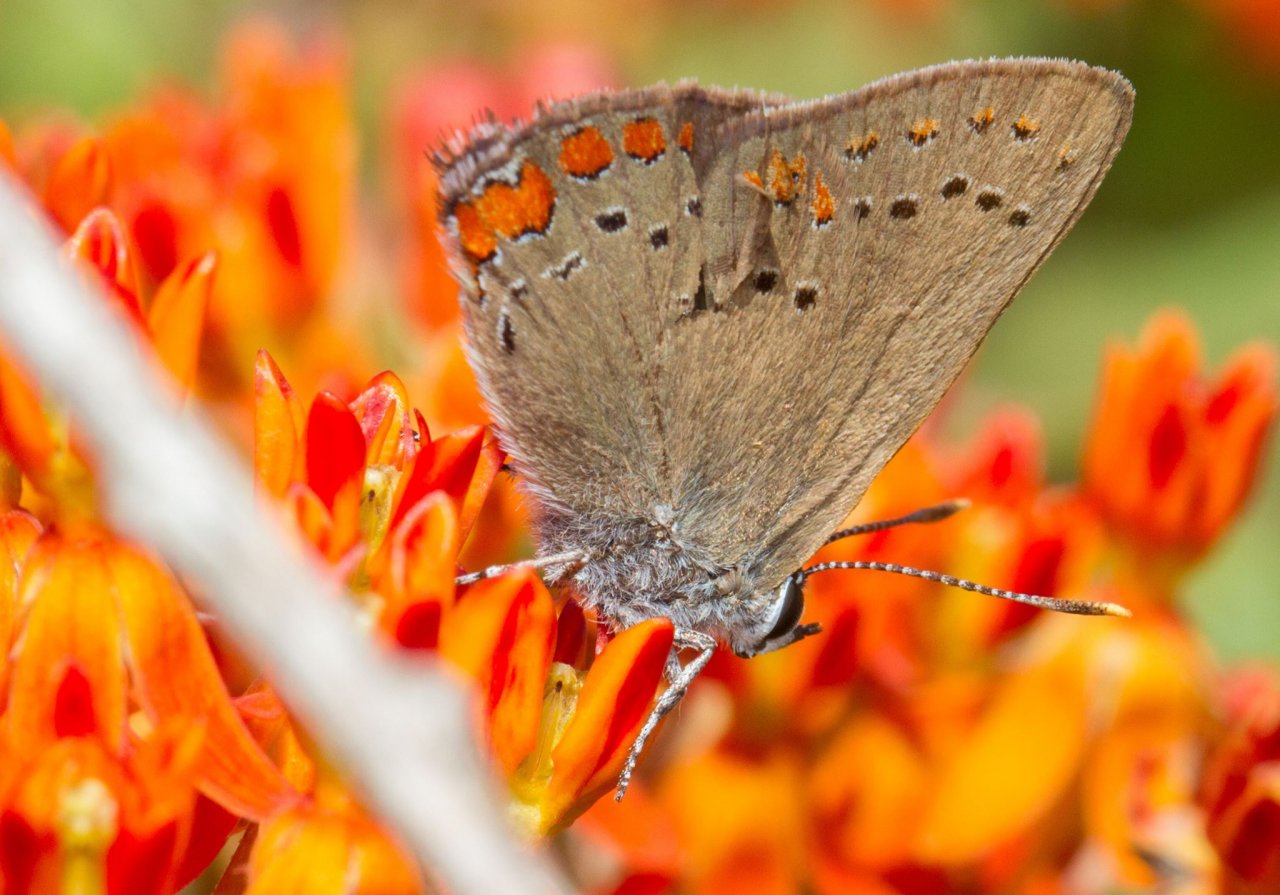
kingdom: Animalia
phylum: Arthropoda
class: Insecta
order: Lepidoptera
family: Lycaenidae
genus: Harkenclenus
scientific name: Harkenclenus titus
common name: Coral Hairstreak
